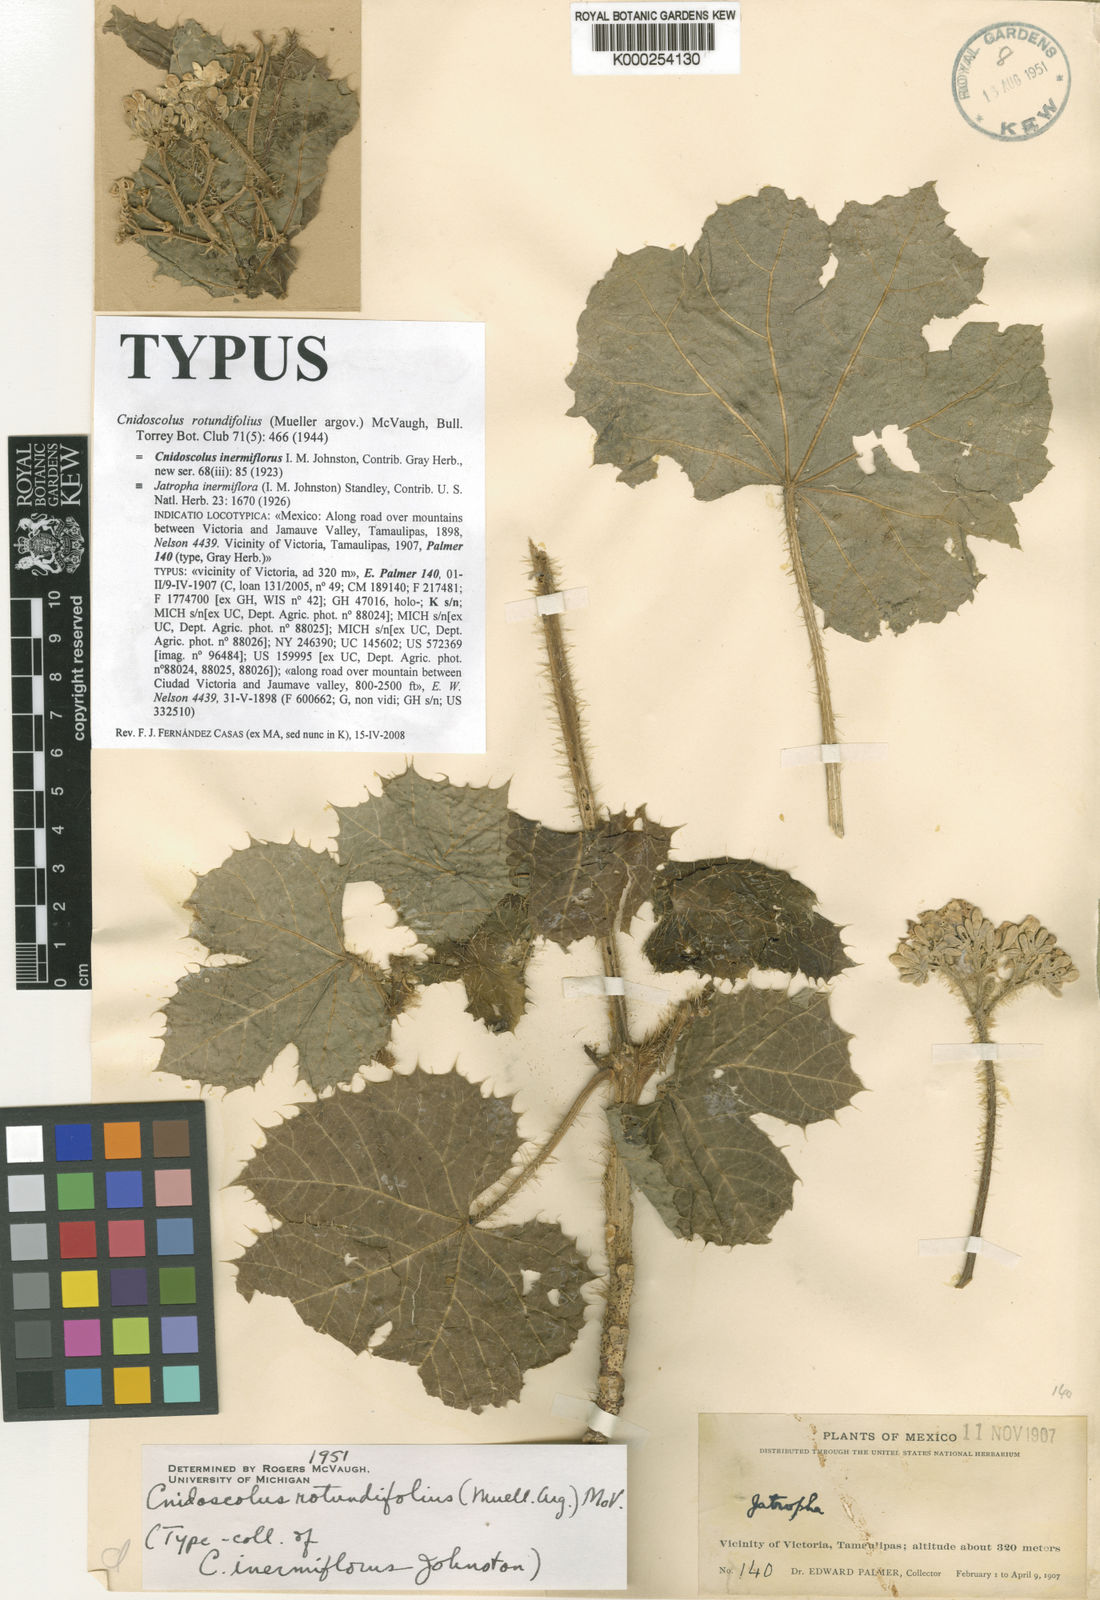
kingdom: Plantae
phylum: Tracheophyta
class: Magnoliopsida
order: Malpighiales
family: Euphorbiaceae
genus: Cnidoscolus
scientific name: Cnidoscolus
